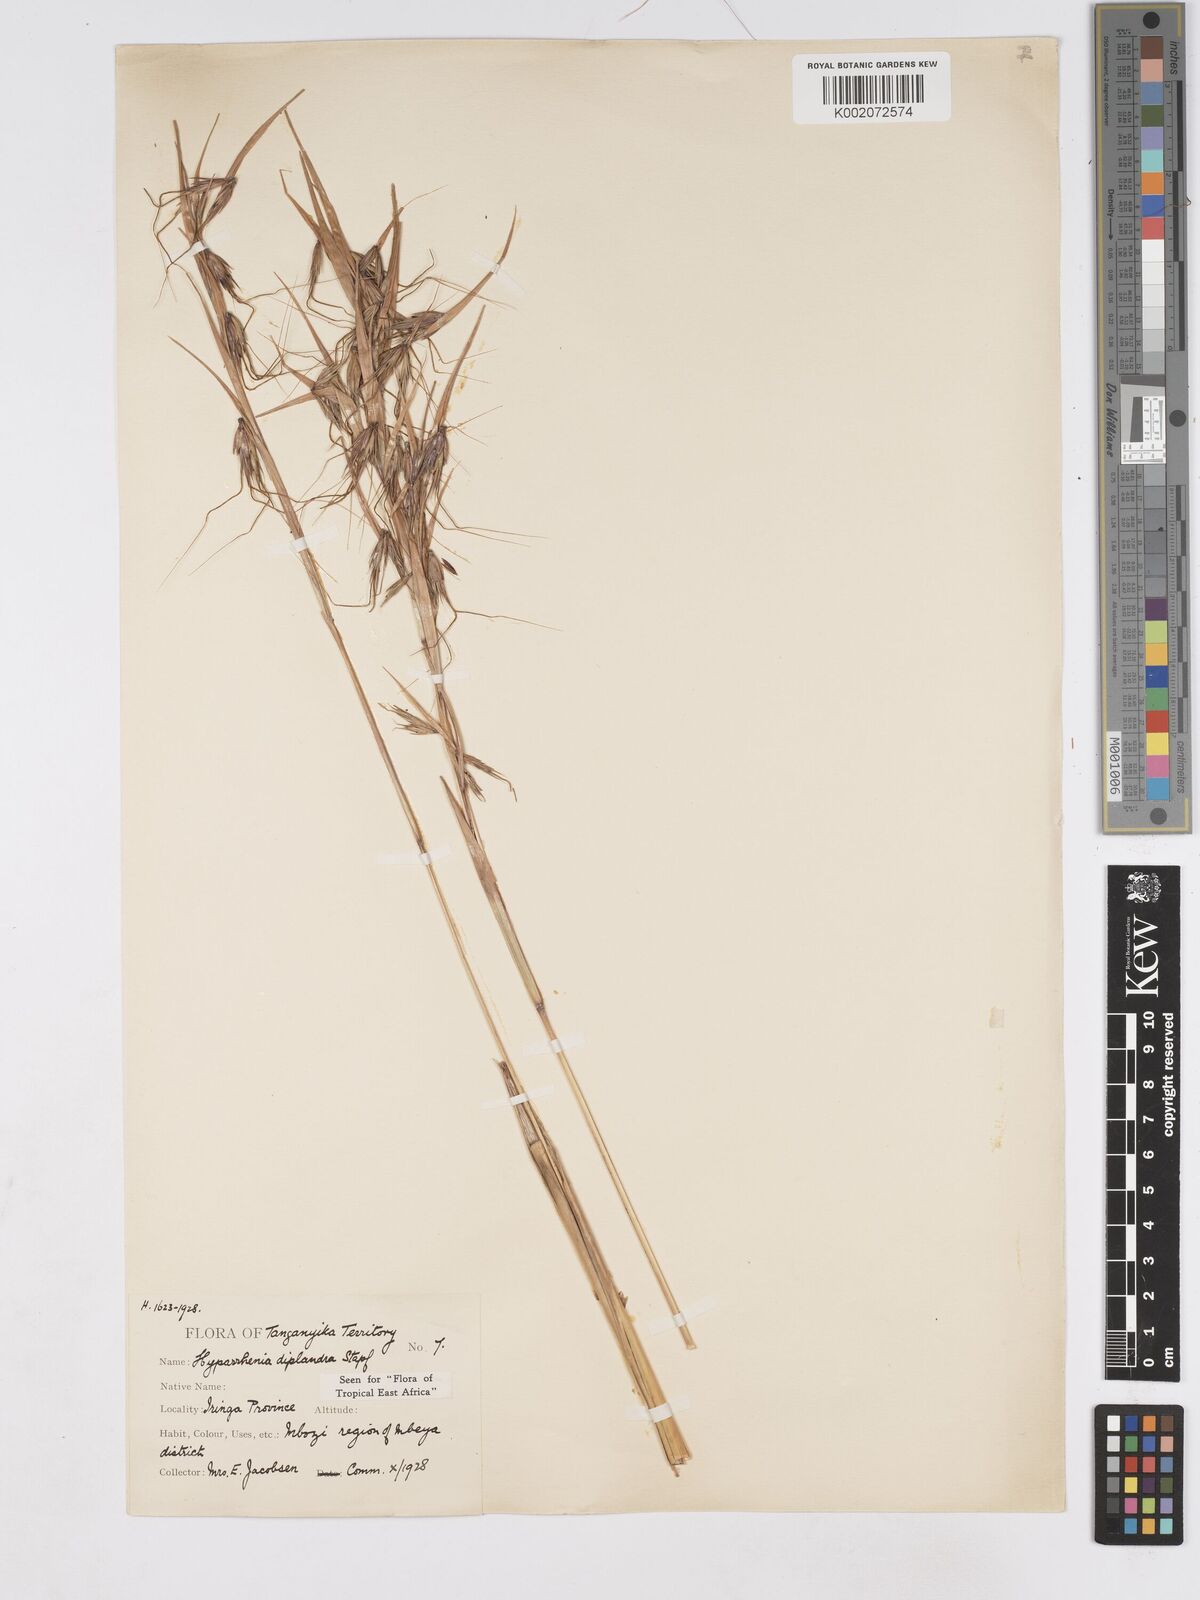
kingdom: Plantae
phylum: Tracheophyta
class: Liliopsida
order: Poales
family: Poaceae
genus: Hyparrhenia
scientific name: Hyparrhenia diplandra
